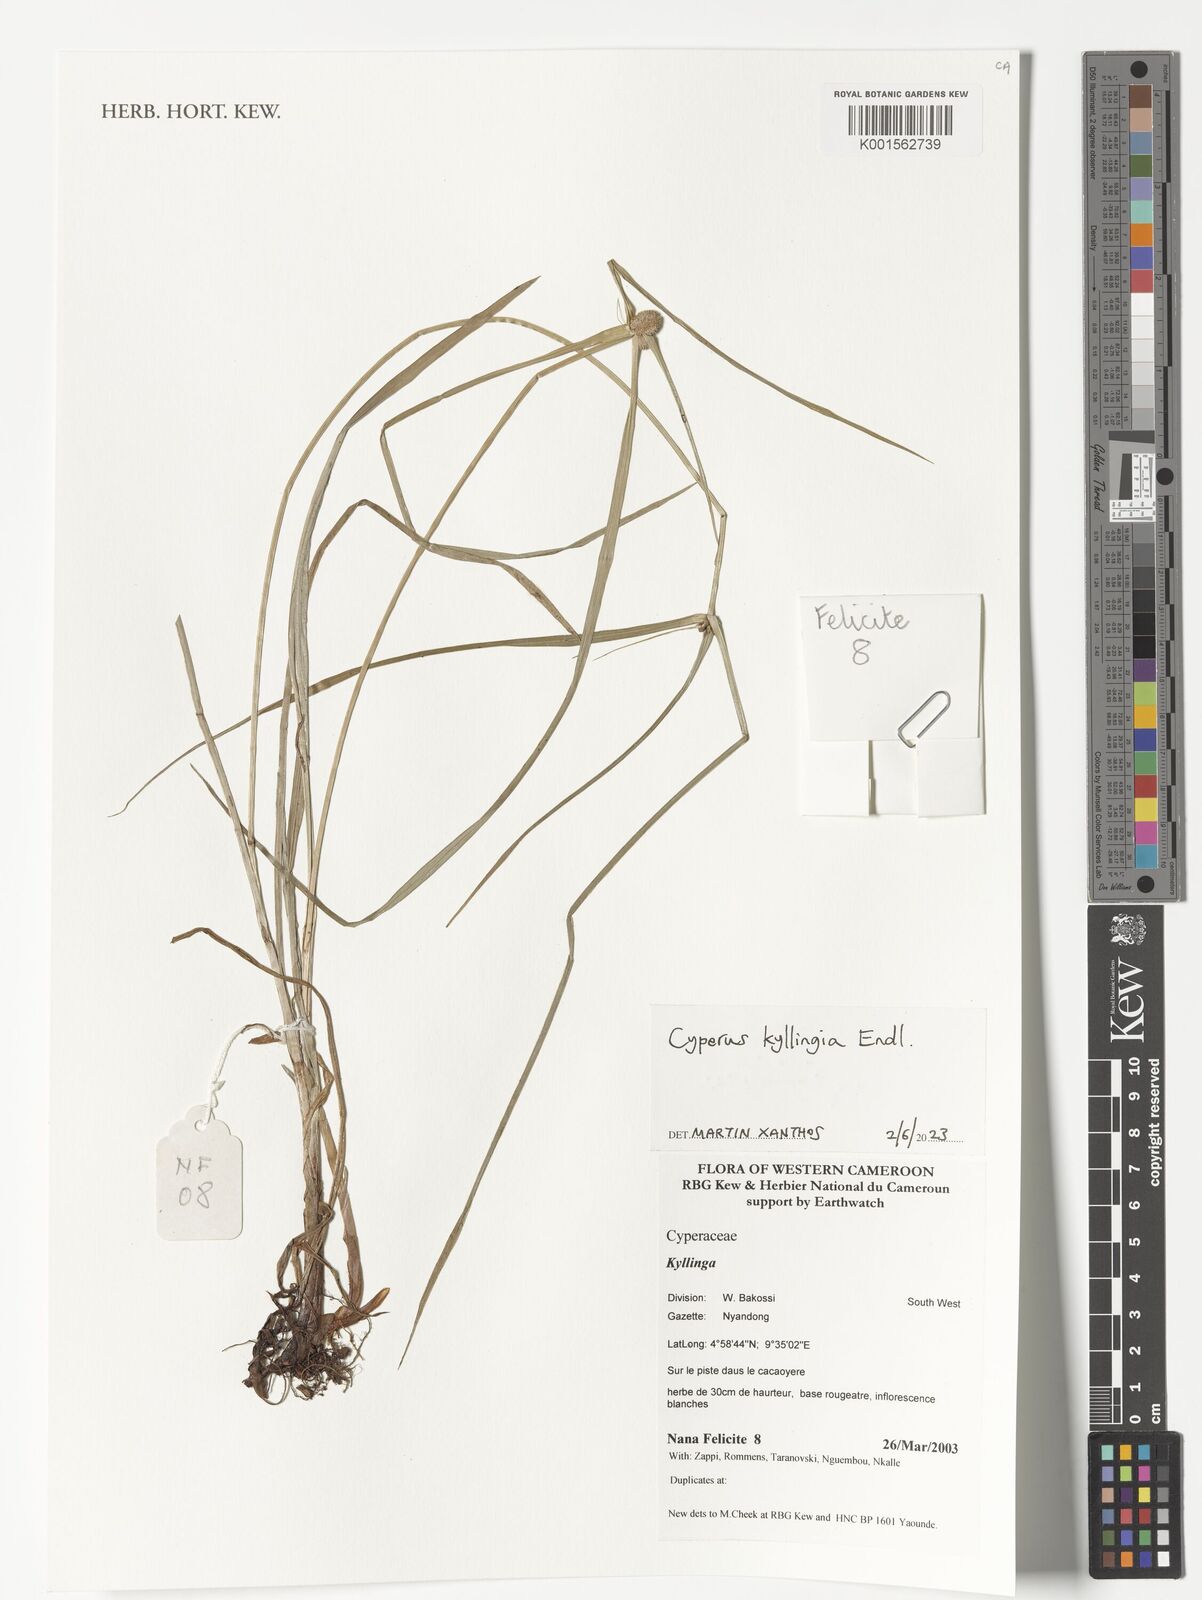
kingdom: Plantae
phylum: Tracheophyta
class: Liliopsida
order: Poales
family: Cyperaceae
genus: Rhynchospora
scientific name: Rhynchospora colorata
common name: Star sedge
